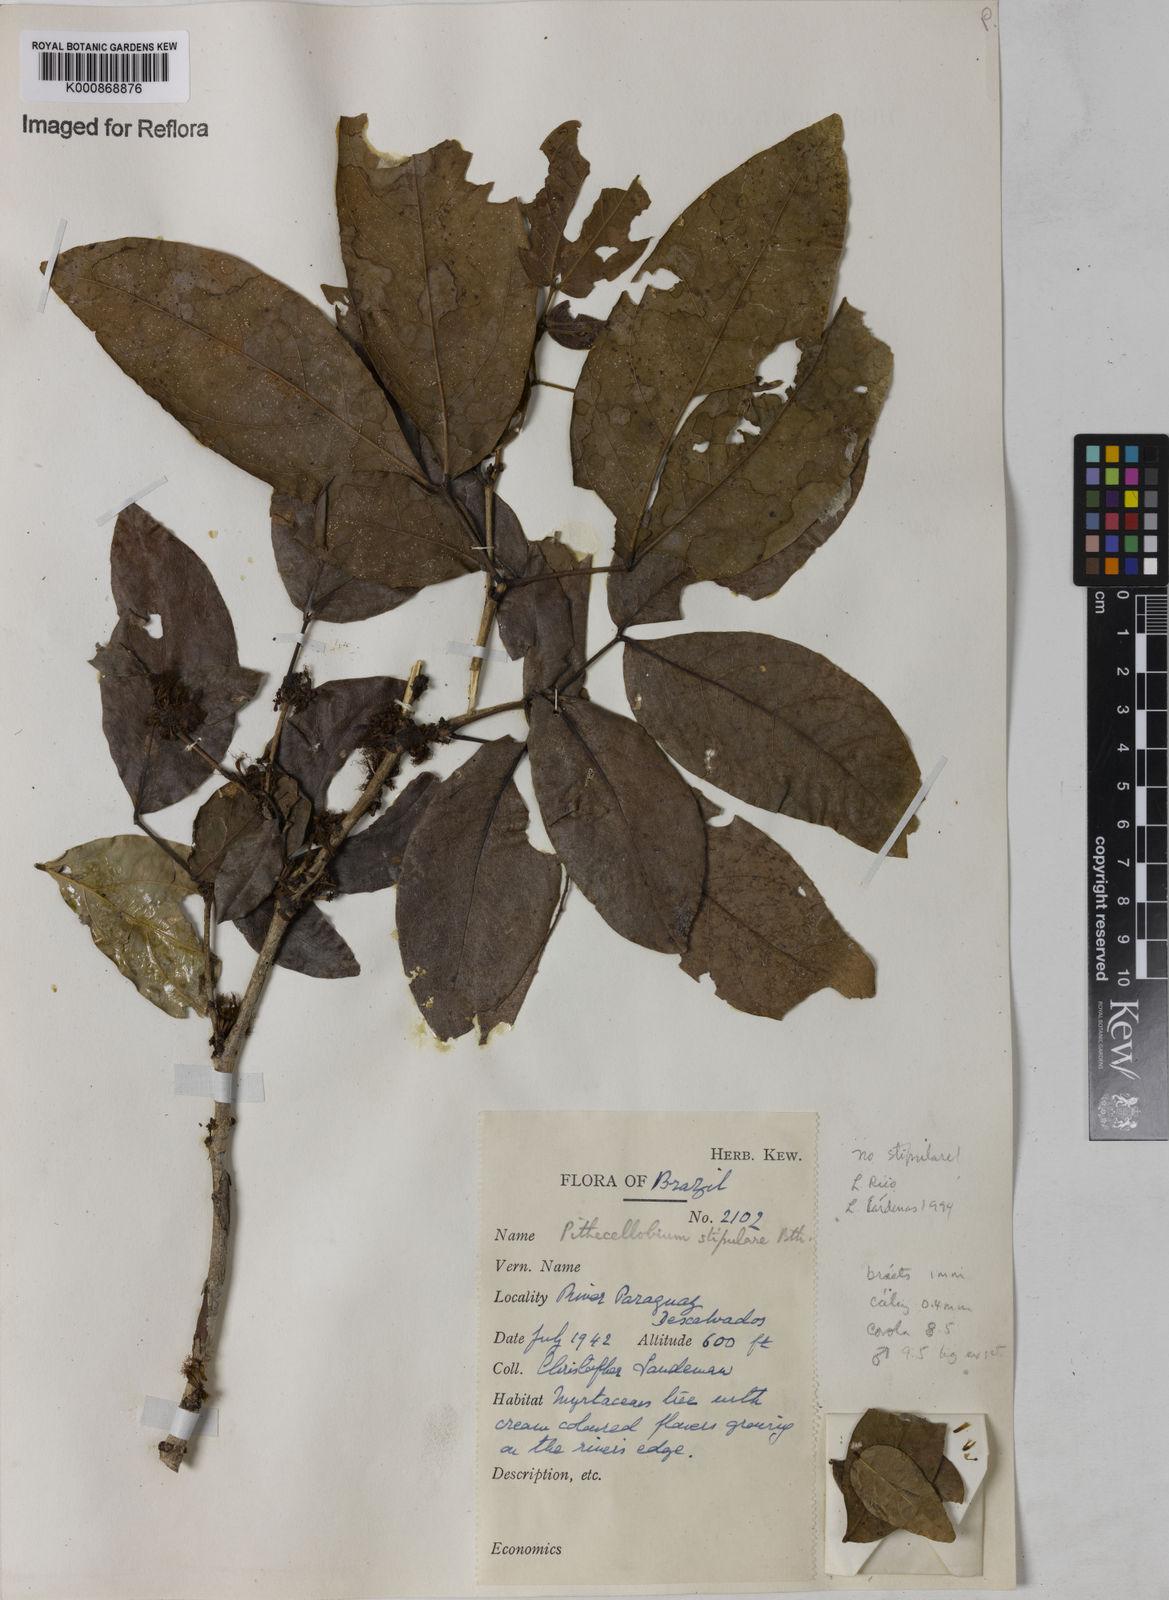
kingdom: Plantae
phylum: Tracheophyta
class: Magnoliopsida
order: Fabales
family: Fabaceae
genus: Zygia
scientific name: Zygia cauliflora
